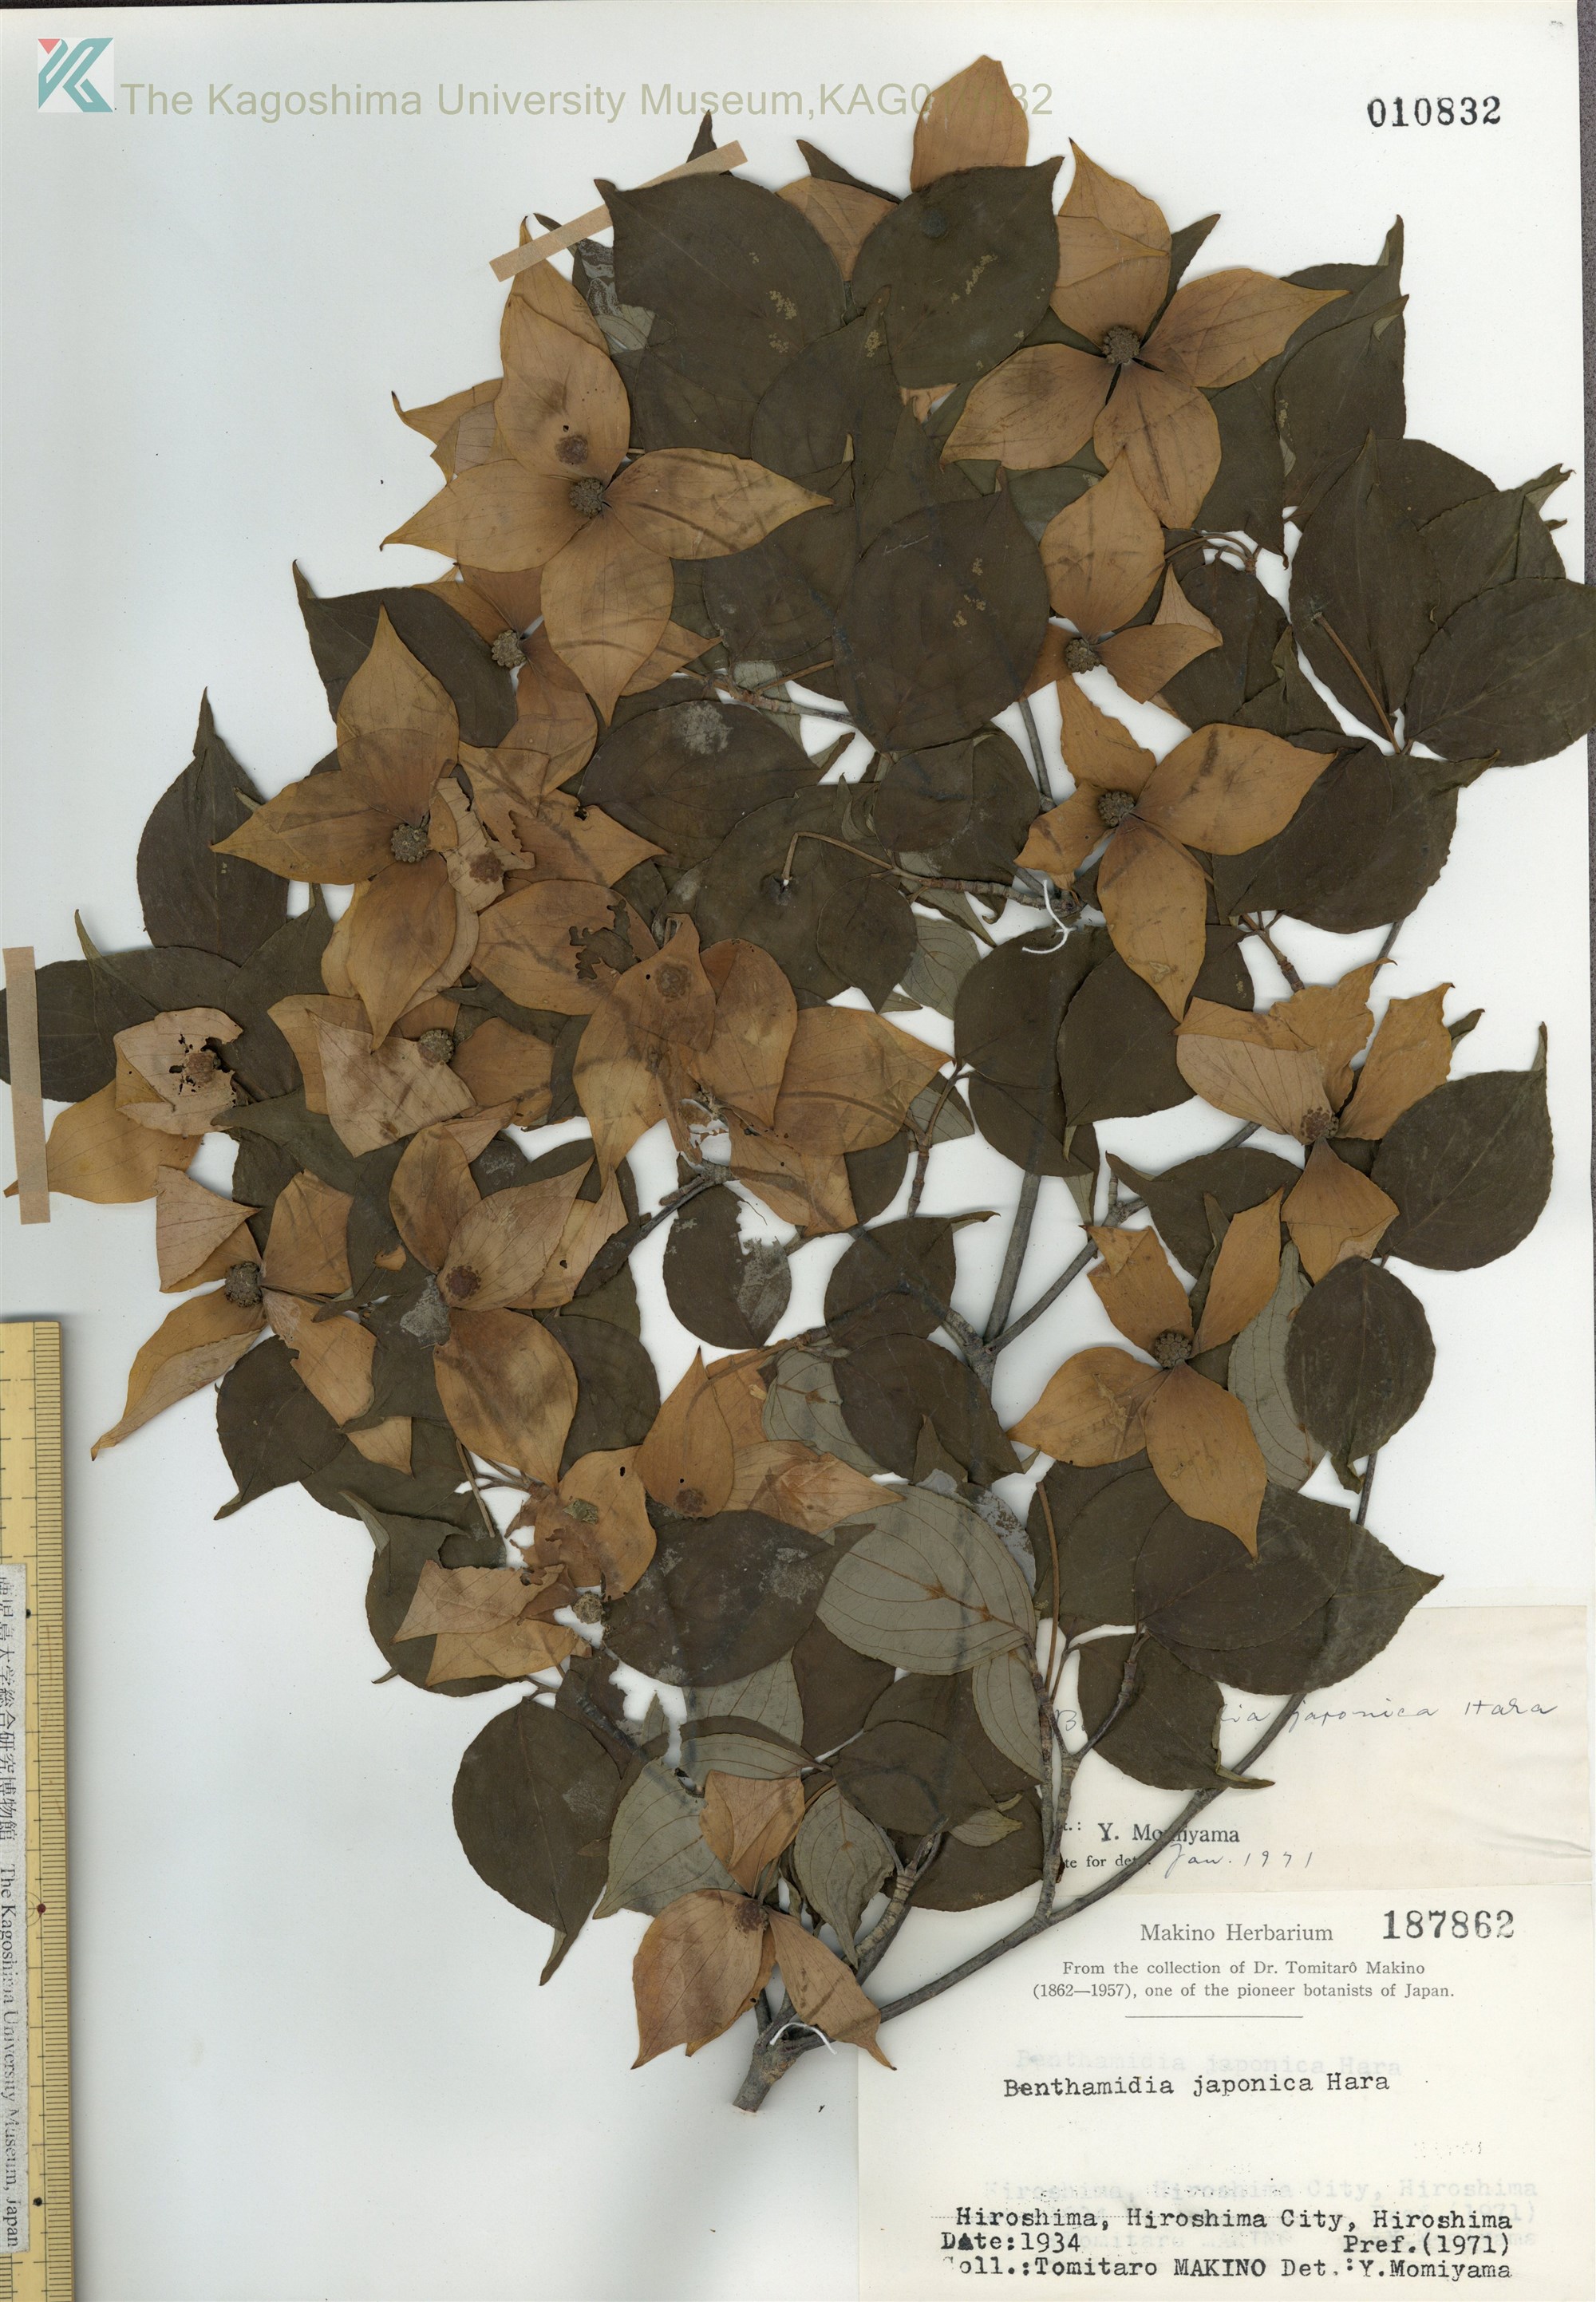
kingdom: Plantae
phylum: Tracheophyta
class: Magnoliopsida
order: Cornales
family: Cornaceae
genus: Cornus
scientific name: Cornus kousa
